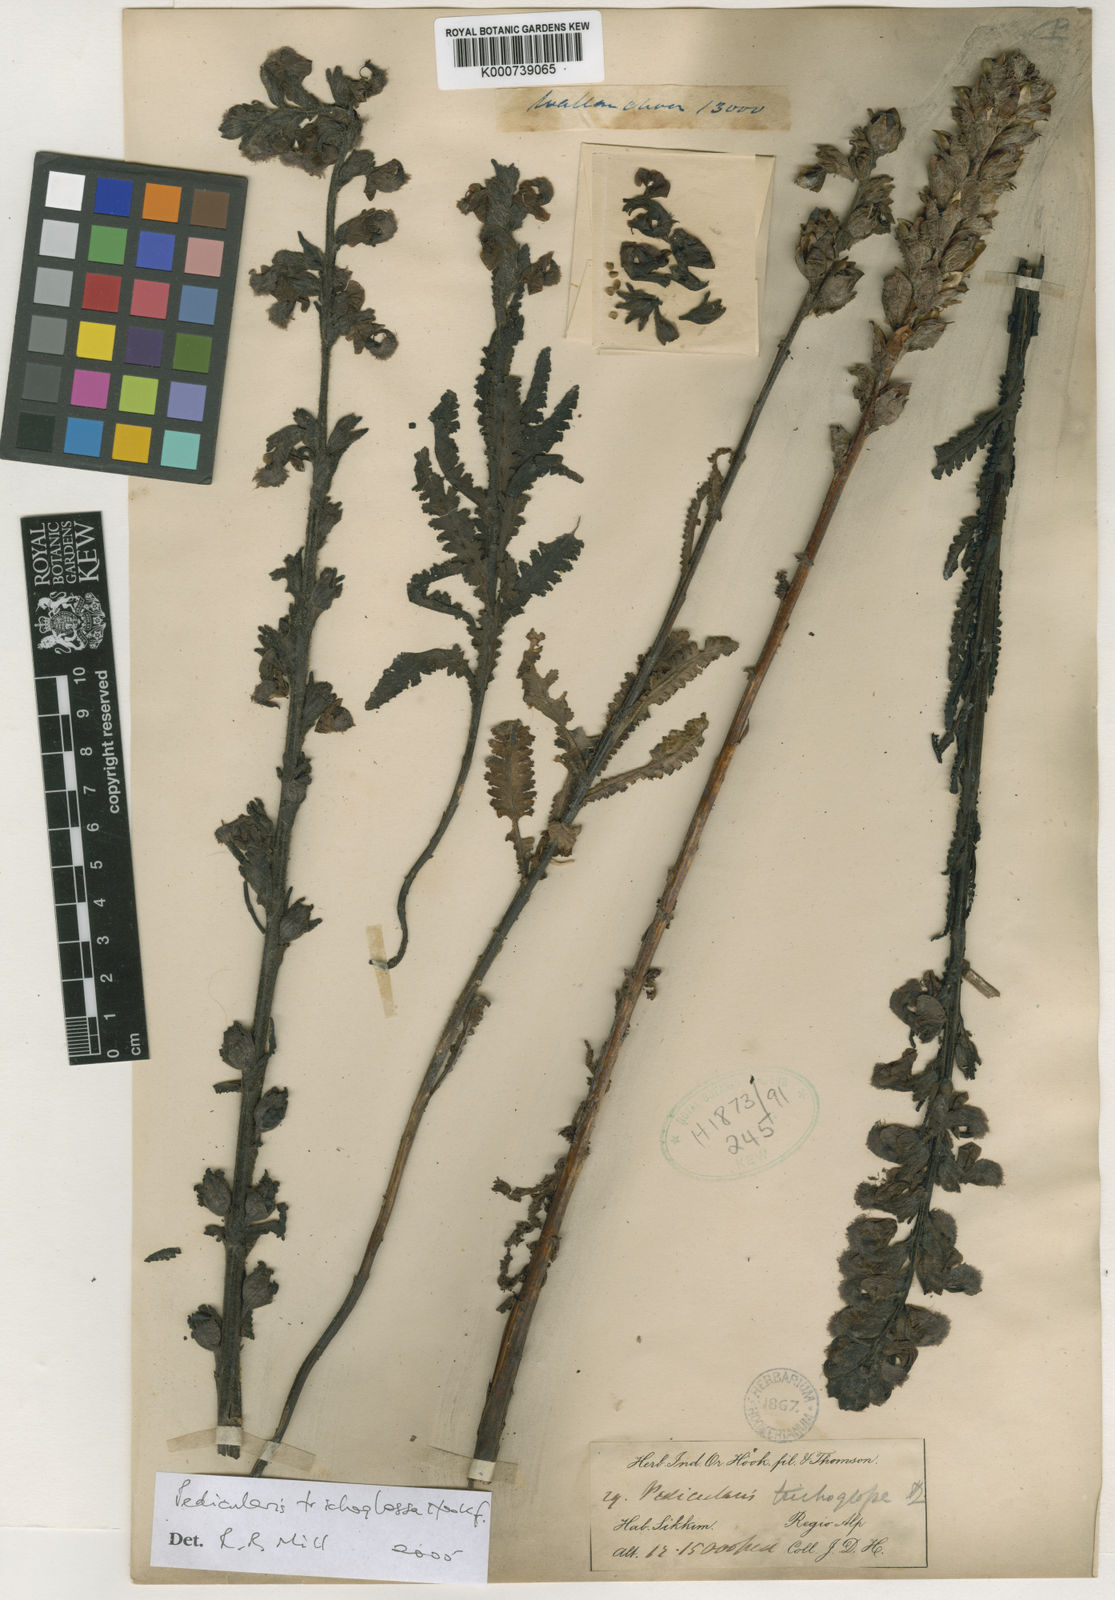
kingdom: Plantae
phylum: Tracheophyta
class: Magnoliopsida
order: Lamiales
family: Orobanchaceae
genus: Pedicularis
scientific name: Pedicularis trichoglossa
